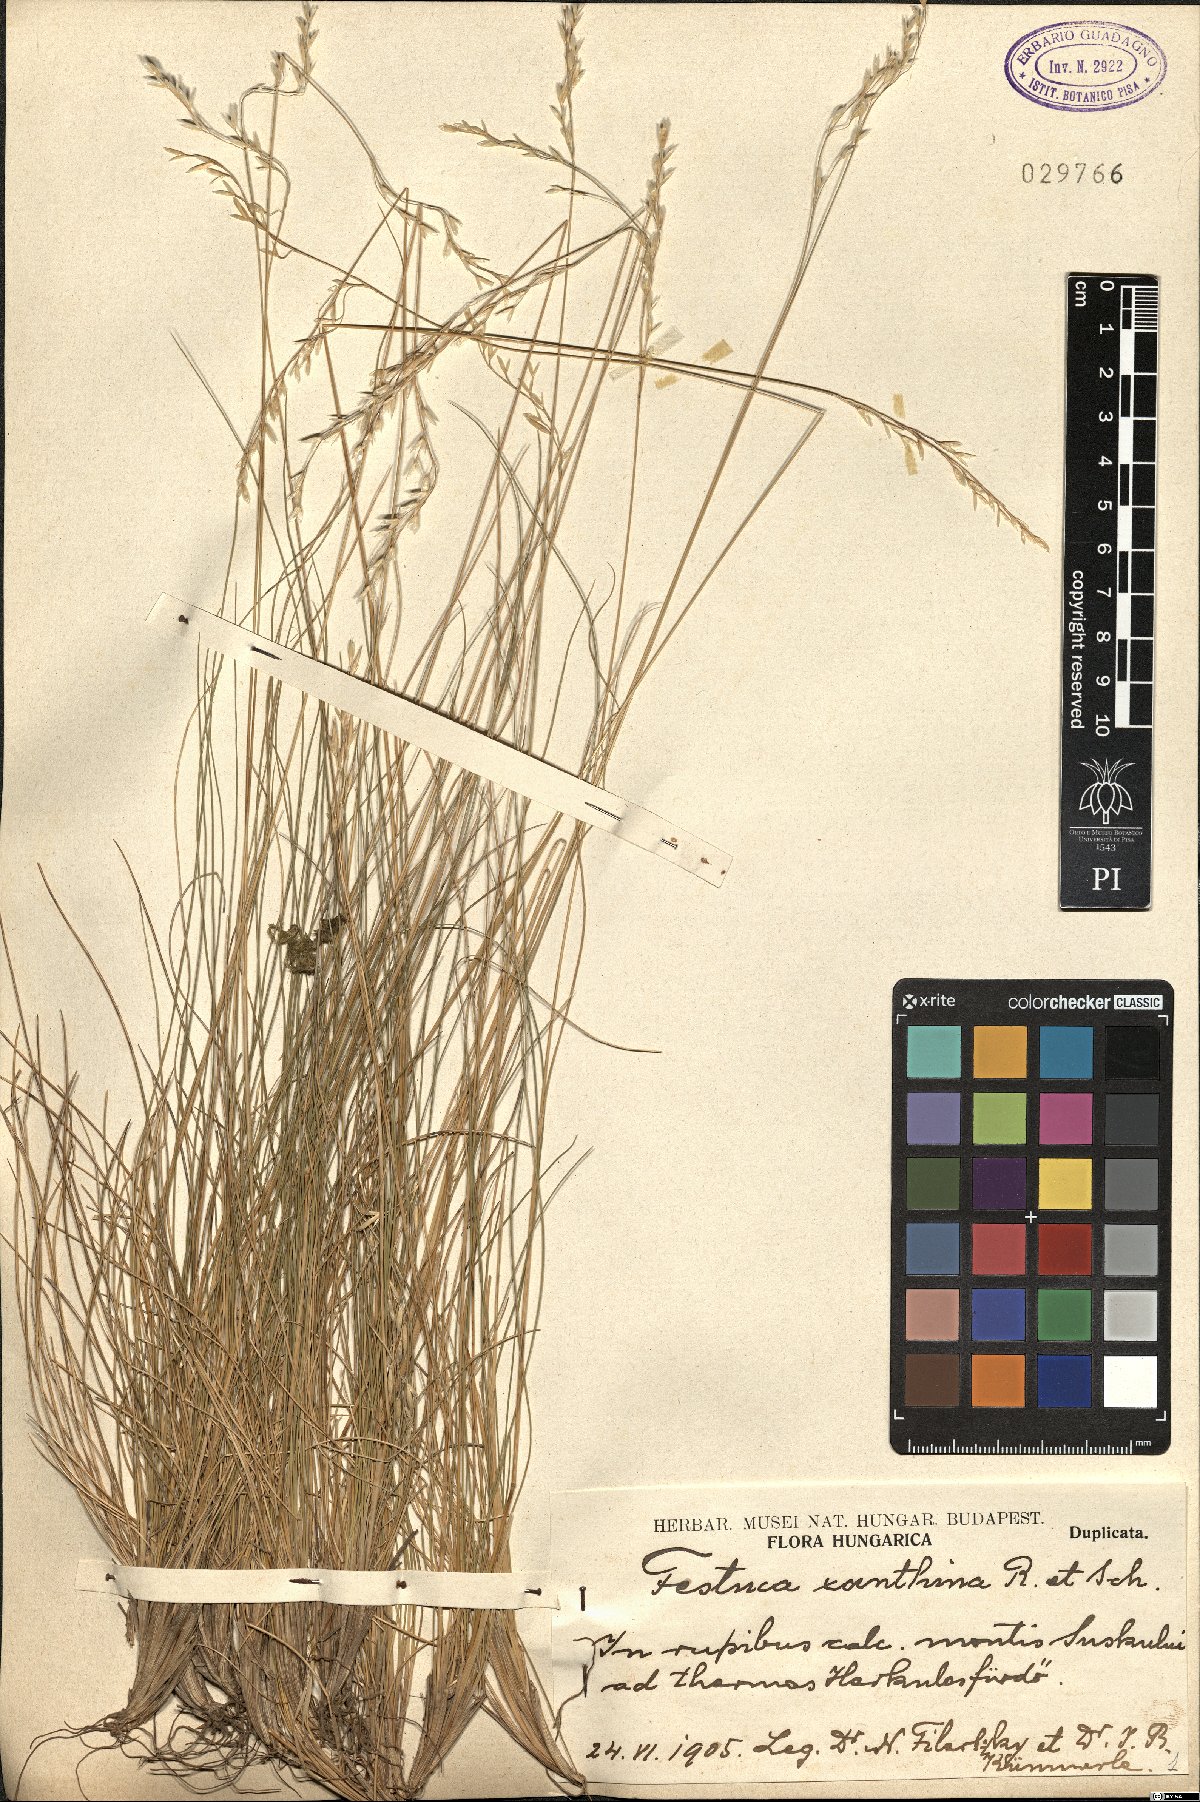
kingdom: Plantae
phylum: Tracheophyta
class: Liliopsida
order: Poales
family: Poaceae
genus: Festuca
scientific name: Festuca xanthina
